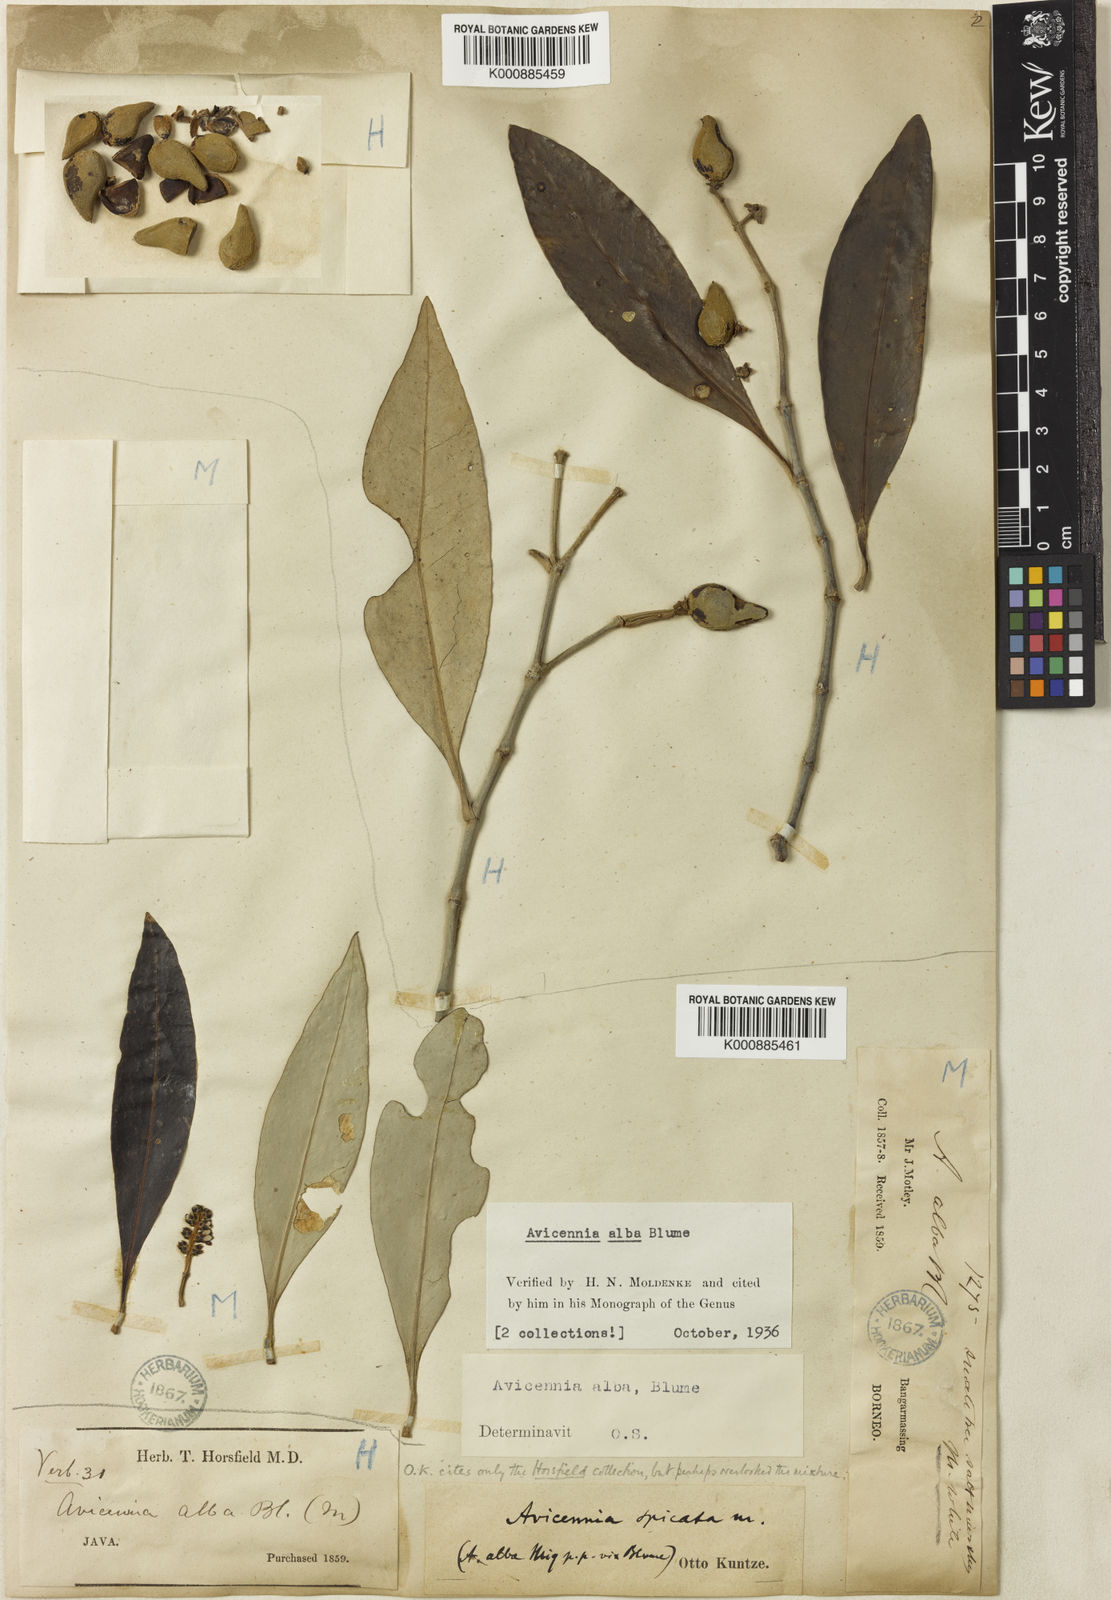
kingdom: Plantae
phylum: Tracheophyta
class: Magnoliopsida
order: Lamiales
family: Acanthaceae
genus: Avicennia
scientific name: Avicennia alba
